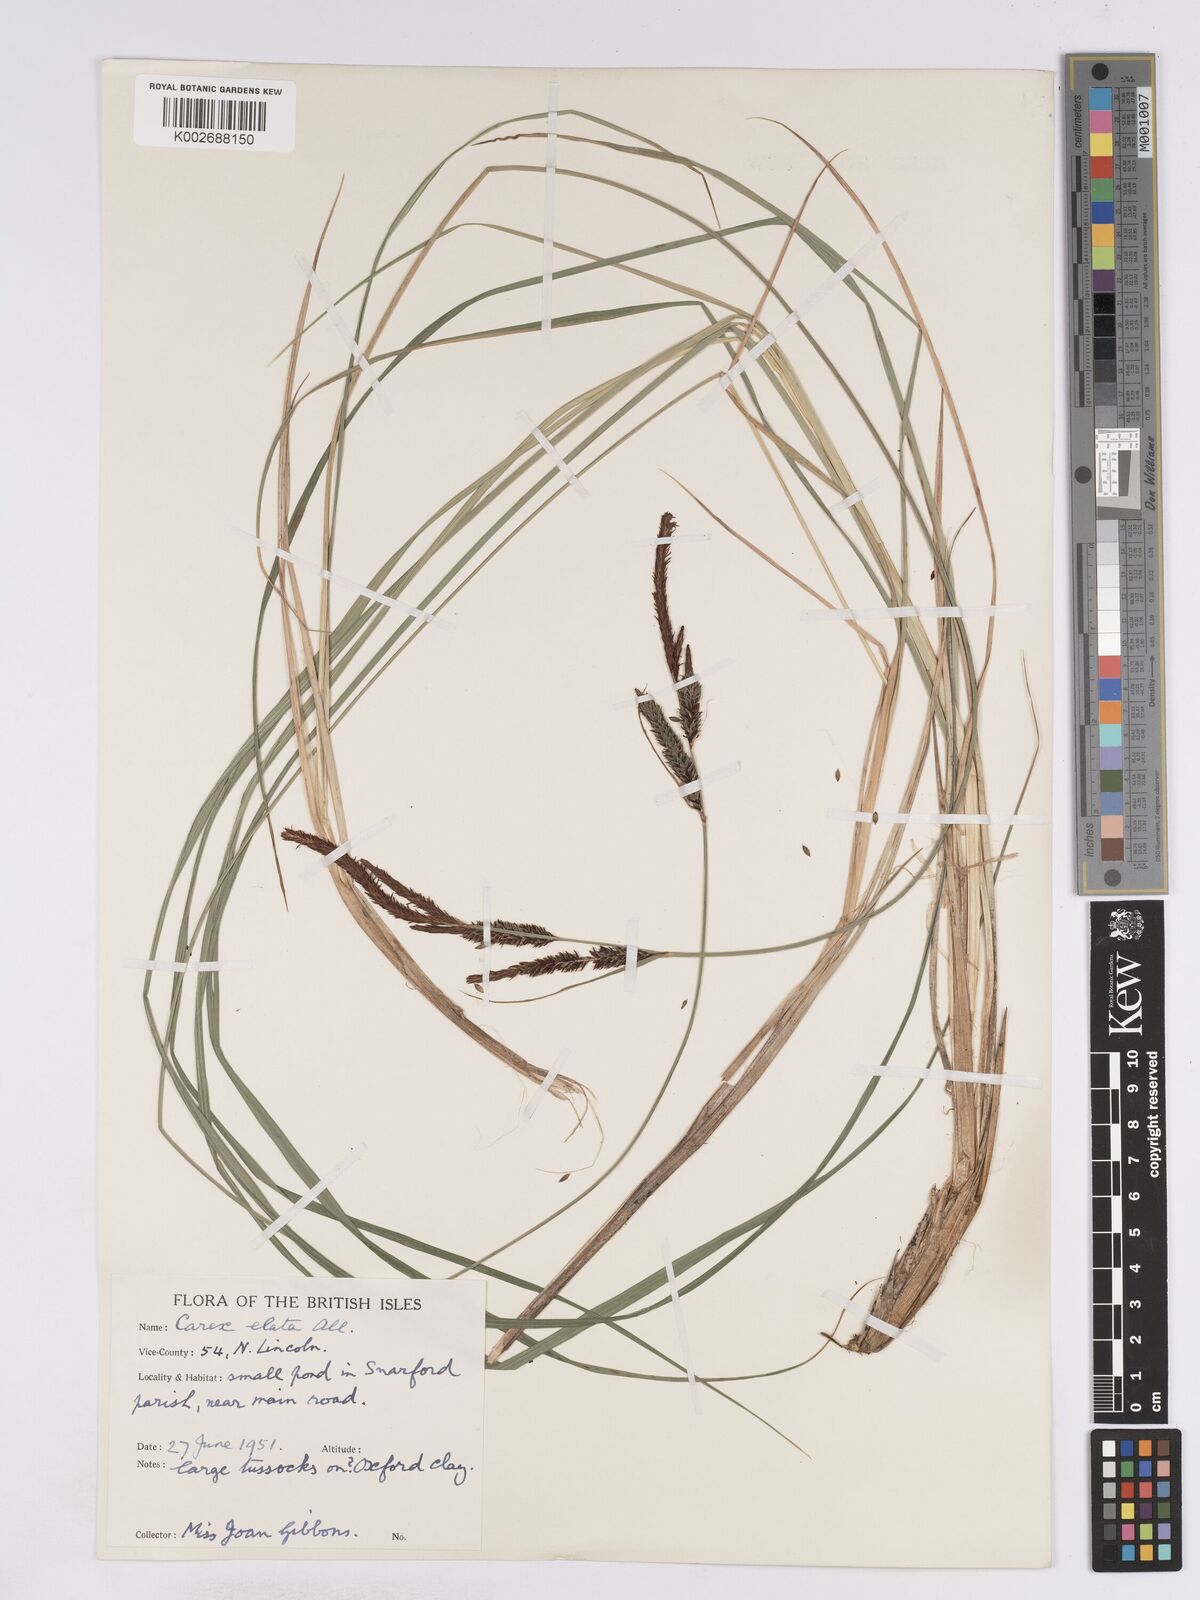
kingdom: Plantae
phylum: Tracheophyta
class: Liliopsida
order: Poales
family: Cyperaceae
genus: Carex
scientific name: Carex elata
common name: Tufted sedge
